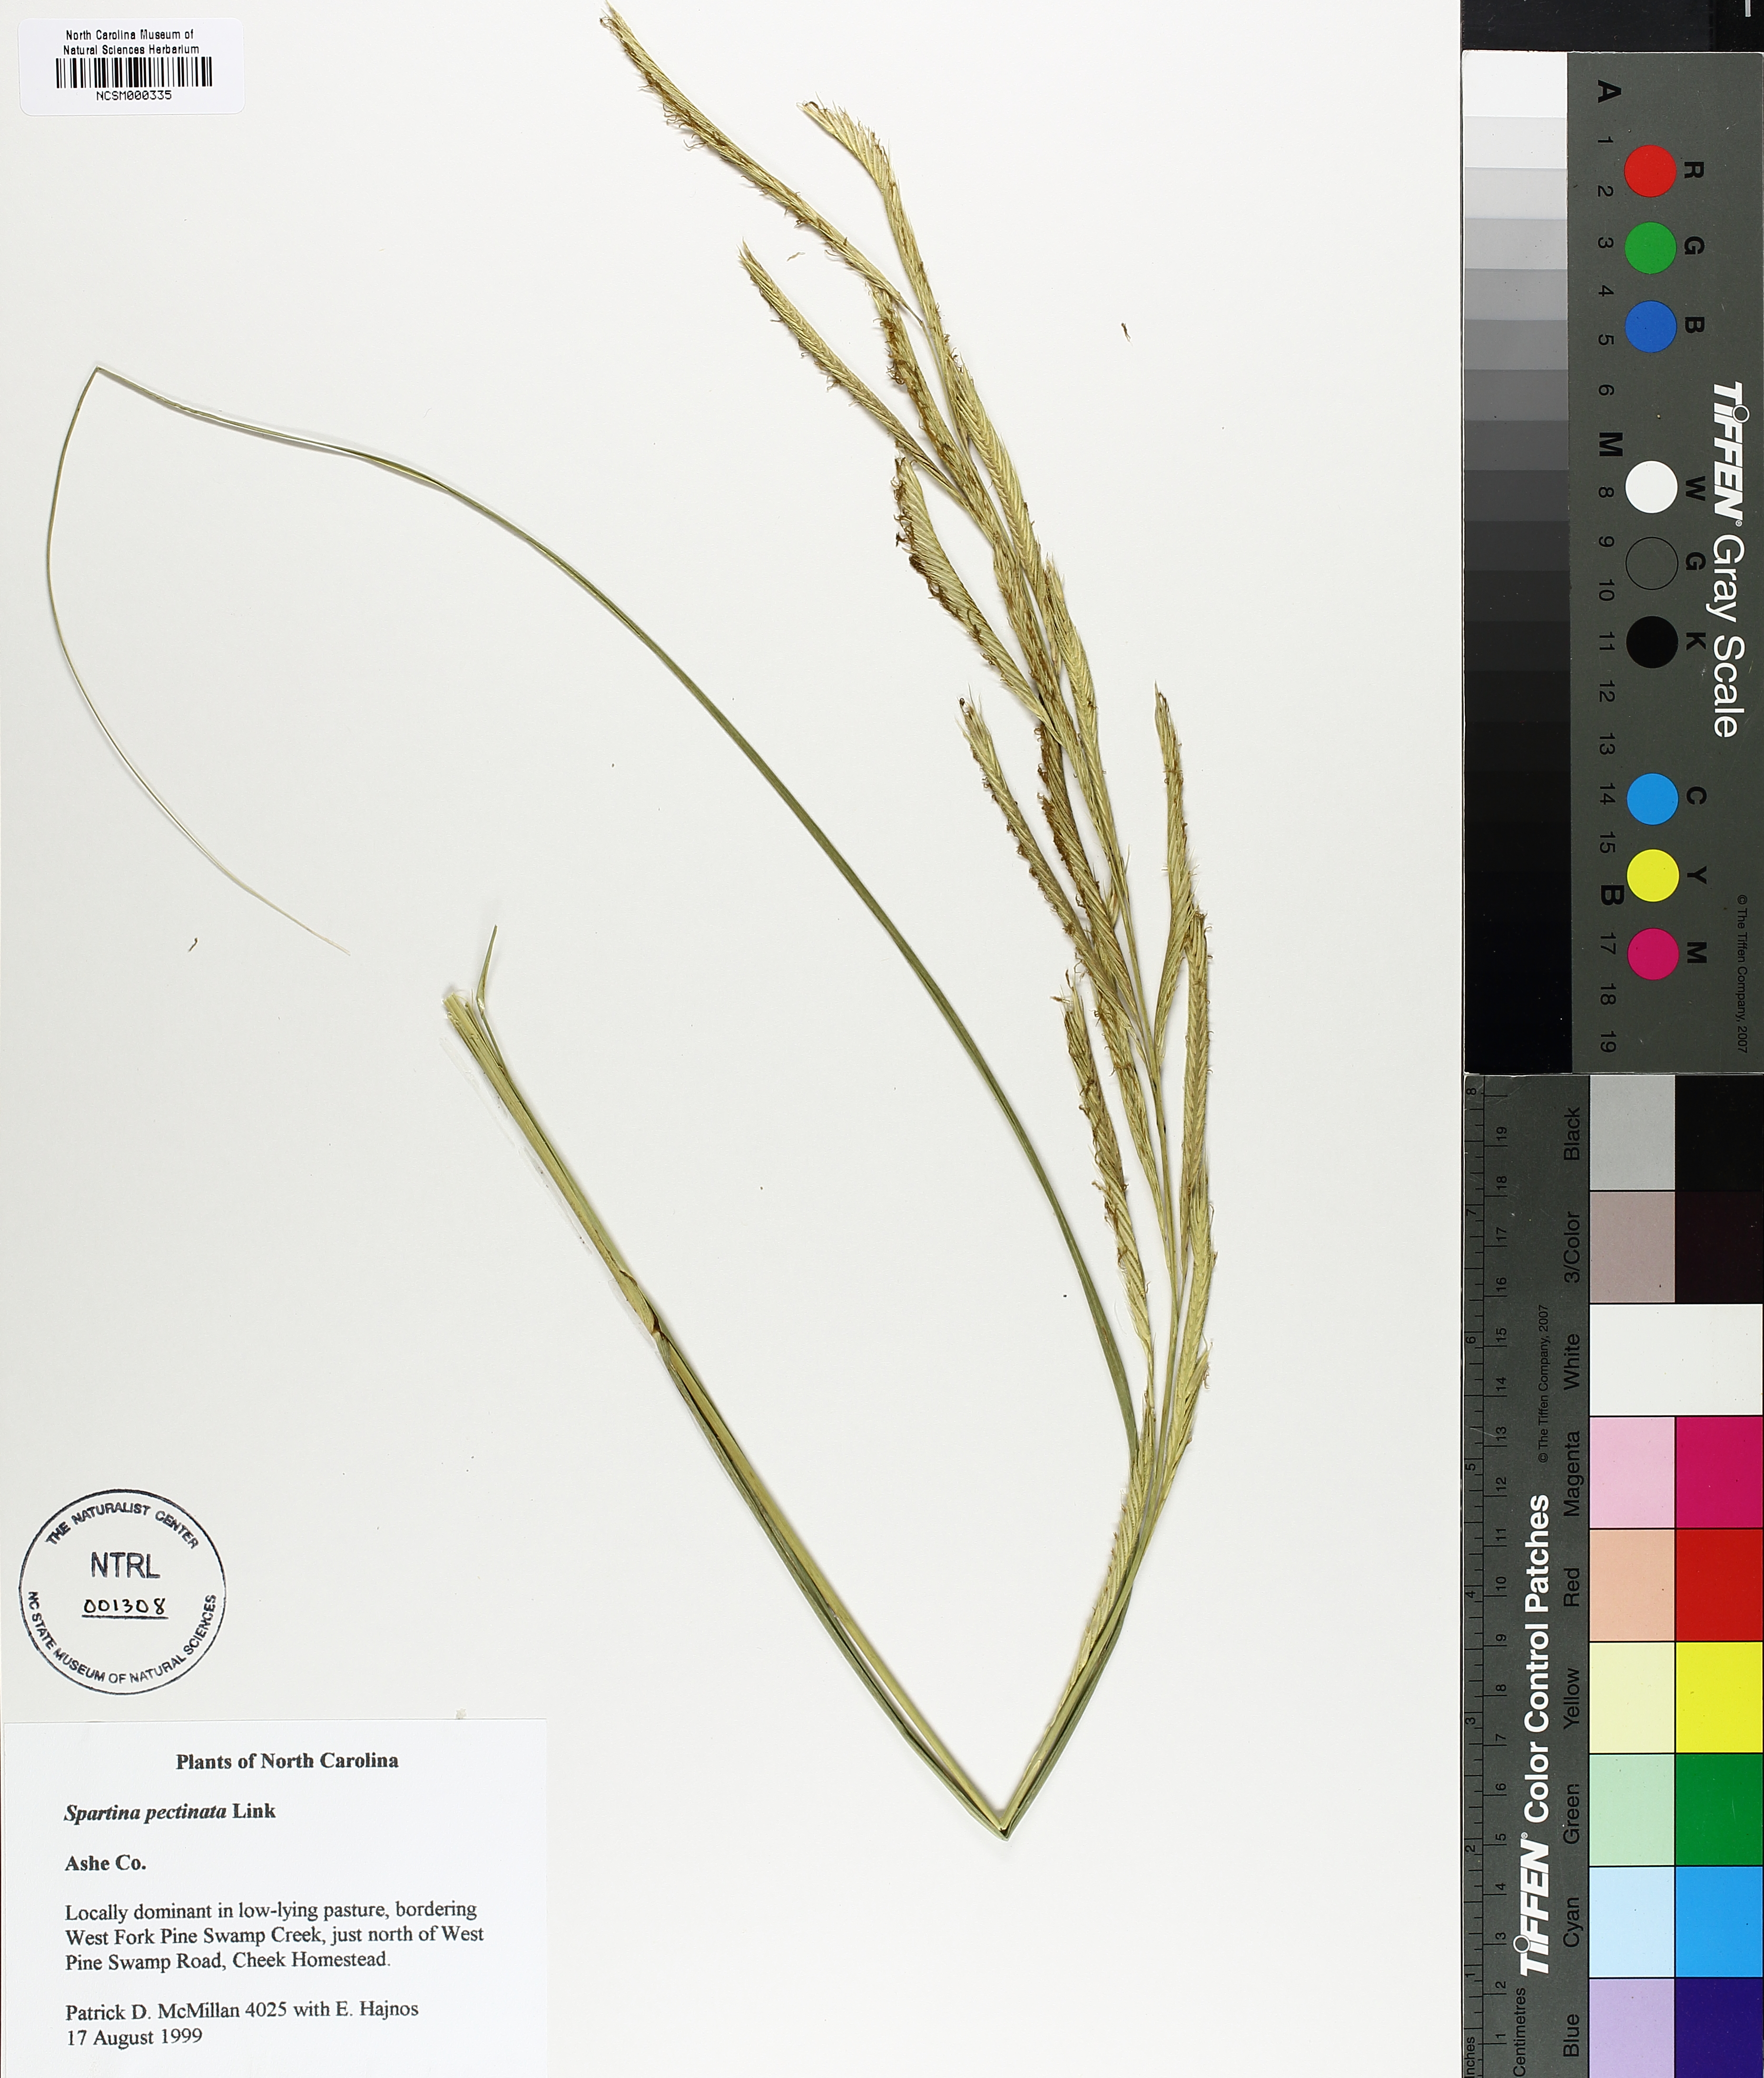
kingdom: Plantae
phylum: Tracheophyta
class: Liliopsida
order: Poales
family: Poaceae
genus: Sporobolus
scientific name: Sporobolus michauxianus
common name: Freshwater cordgrass
